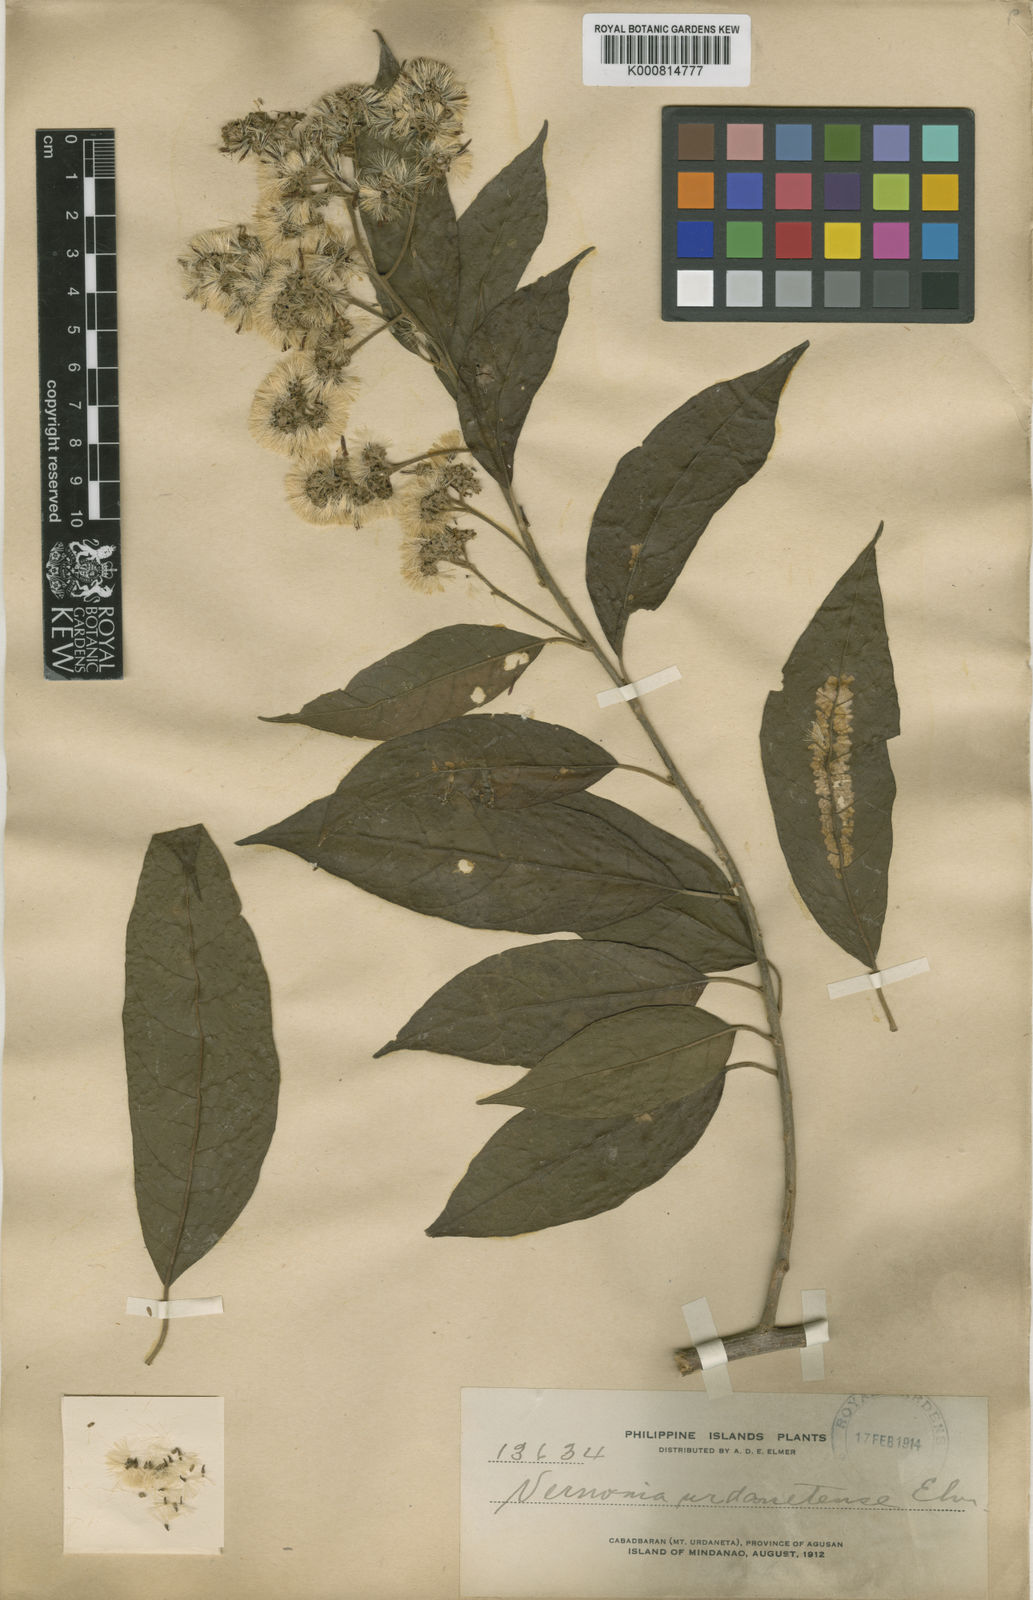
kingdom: Plantae
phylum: Tracheophyta
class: Magnoliopsida
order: Asterales
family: Asteraceae
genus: Strobocalyx
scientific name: Strobocalyx arborea
